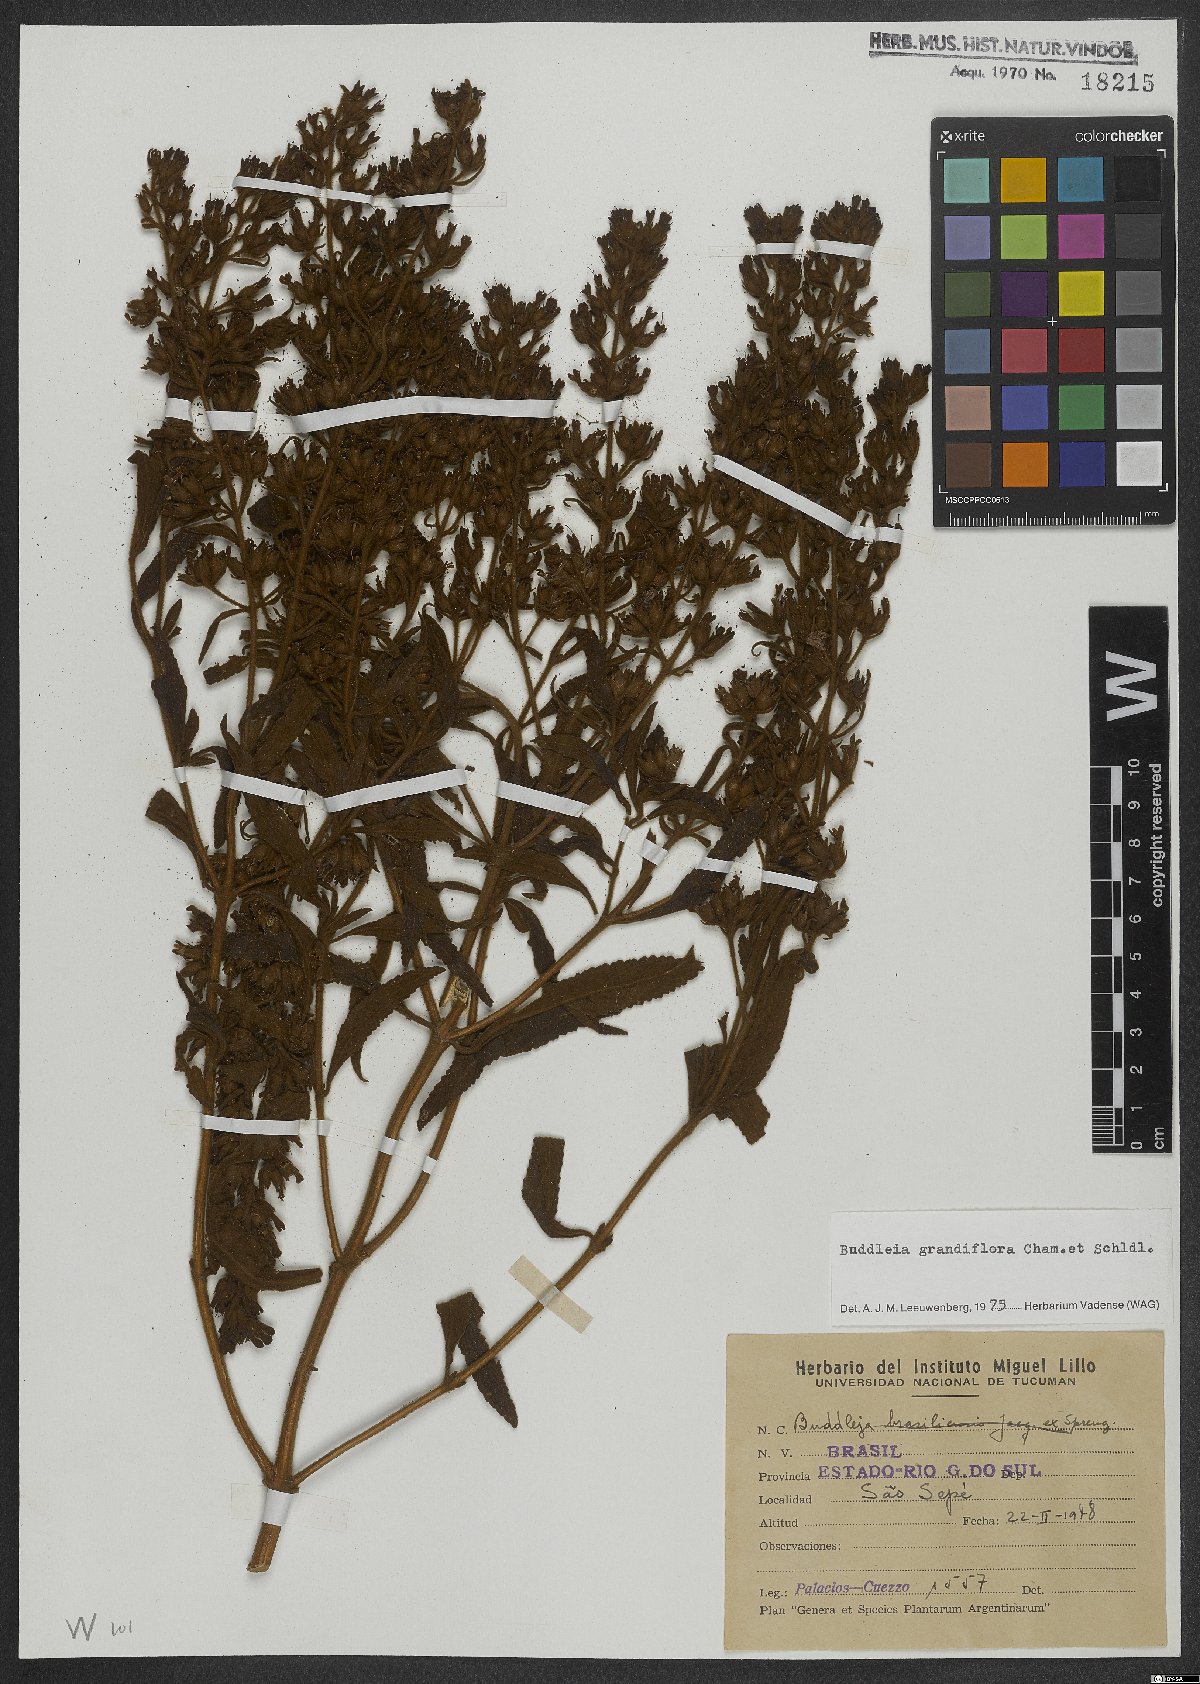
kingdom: Plantae
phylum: Tracheophyta
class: Magnoliopsida
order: Lamiales
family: Scrophulariaceae
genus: Buddleja
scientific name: Buddleja grandiflora
